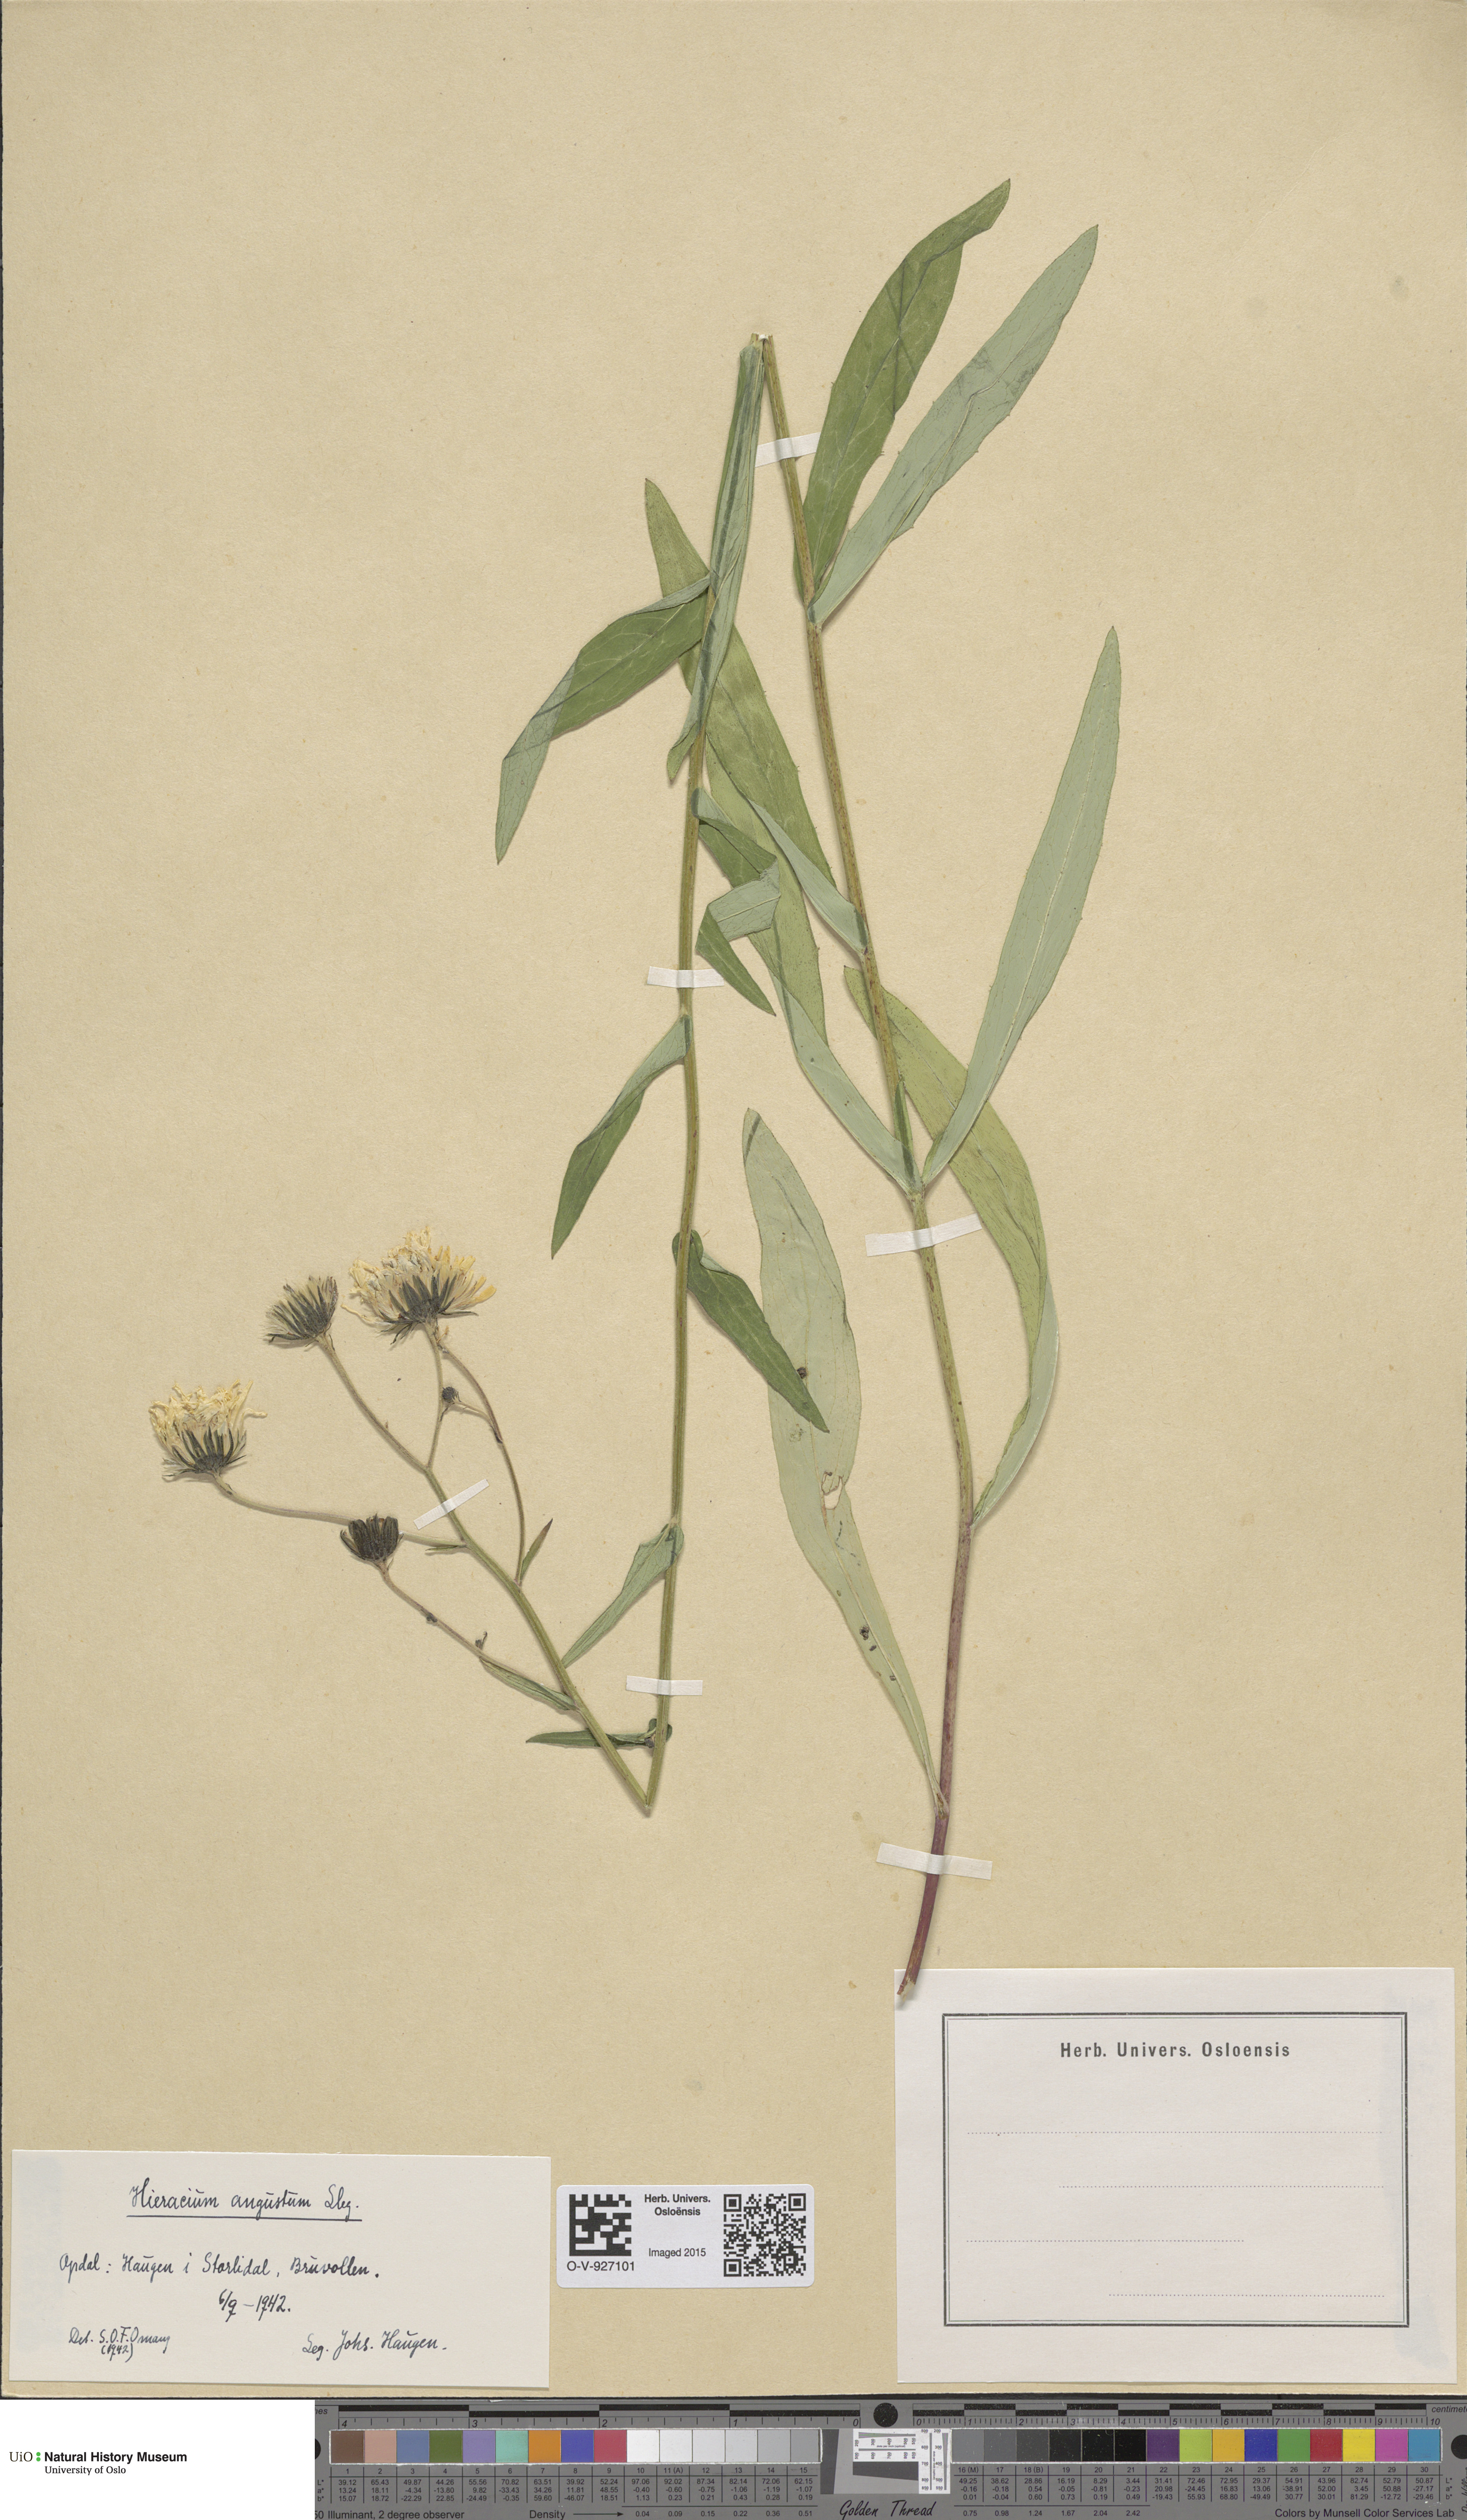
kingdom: Plantae
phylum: Tracheophyta
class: Magnoliopsida
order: Asterales
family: Asteraceae
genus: Hieracium
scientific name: Hieracium angustum
